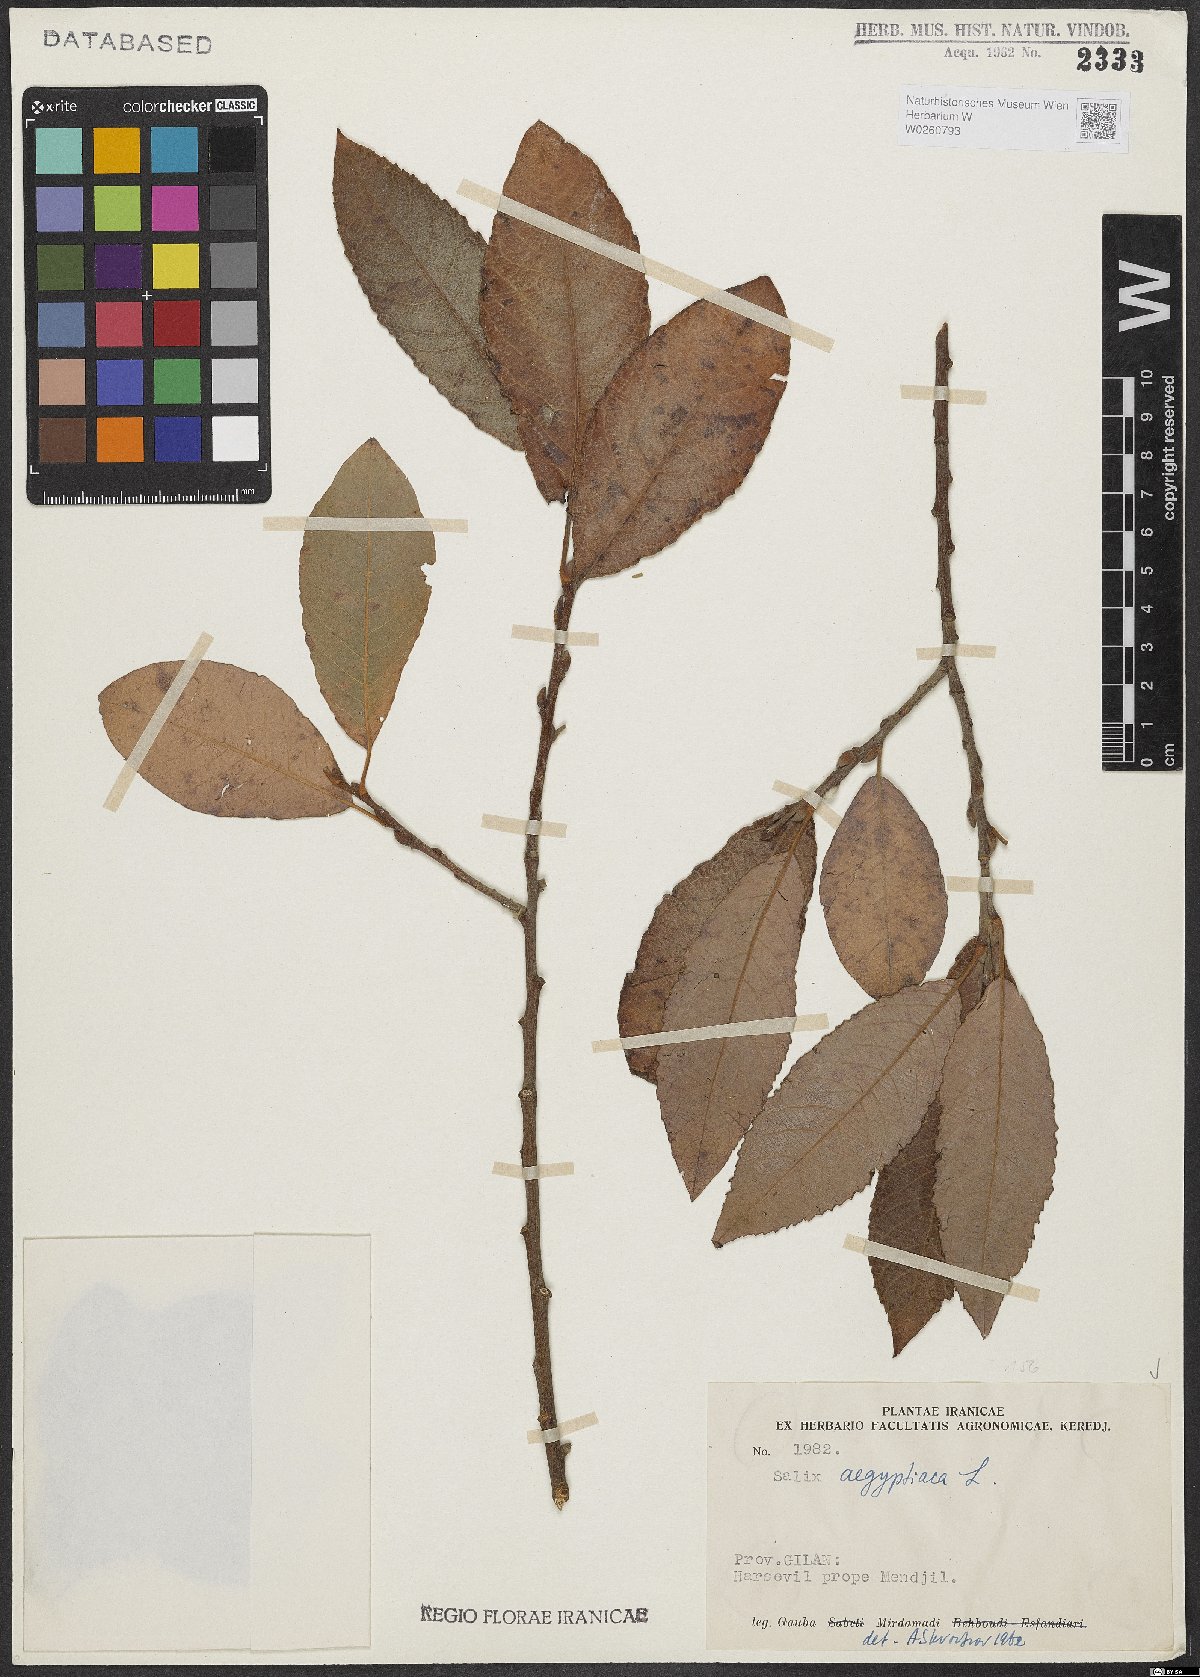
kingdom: Plantae
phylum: Tracheophyta
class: Magnoliopsida
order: Malpighiales
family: Salicaceae
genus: Salix
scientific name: Salix aegyptiaca
